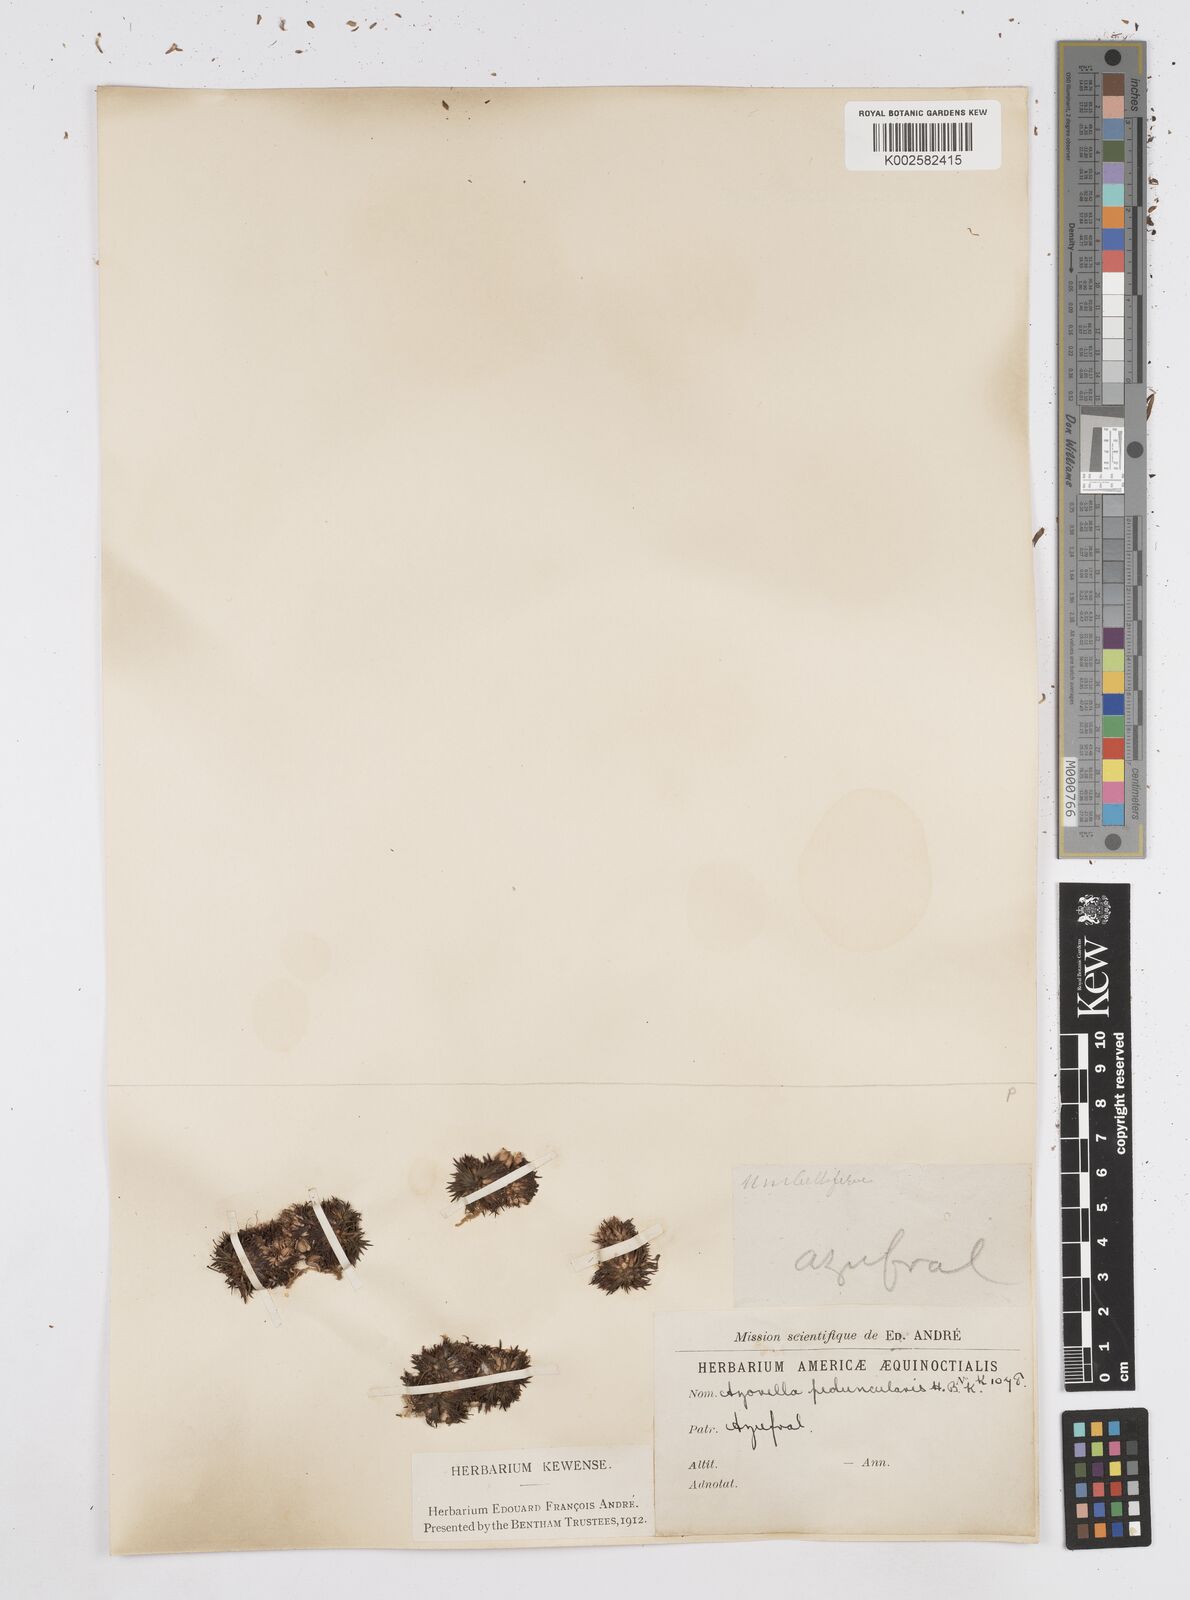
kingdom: Plantae
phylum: Tracheophyta
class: Magnoliopsida
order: Apiales
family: Apiaceae
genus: Azorella
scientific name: Azorella pedunculata
